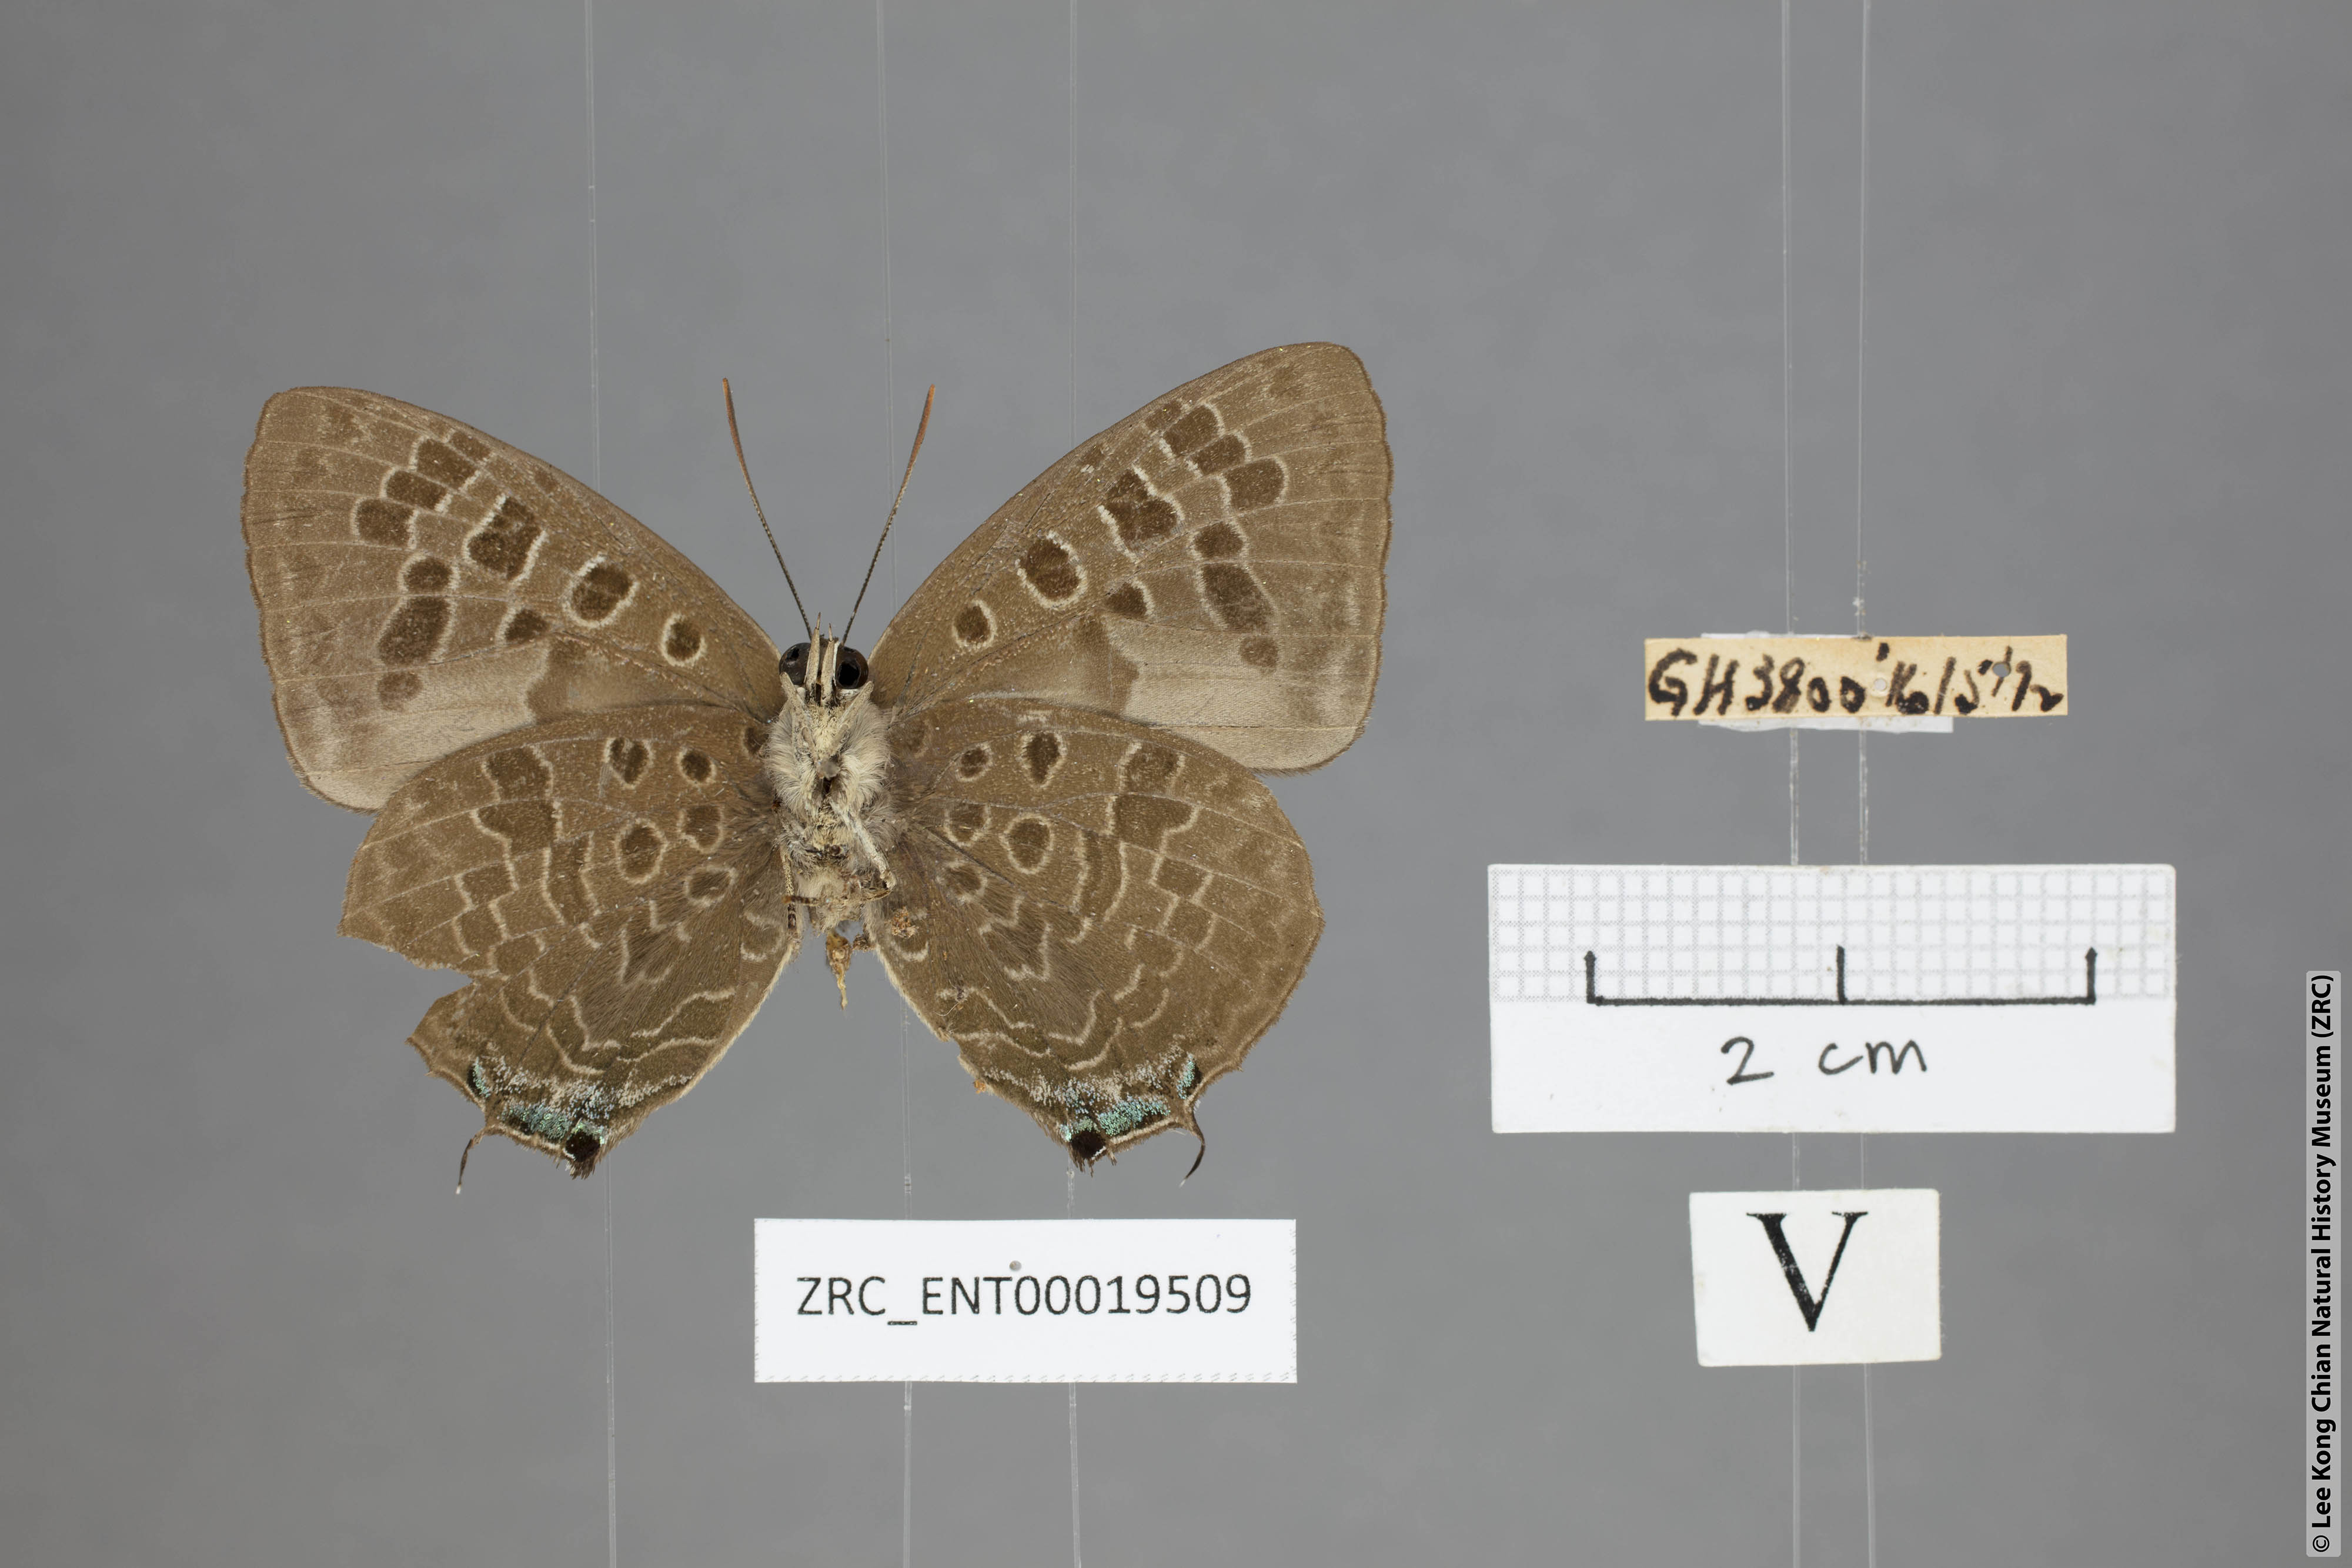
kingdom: Animalia
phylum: Arthropoda
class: Insecta
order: Lepidoptera
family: Lycaenidae
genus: Arhopala
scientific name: Arhopala hellenore
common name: Doherty's green oakblue
